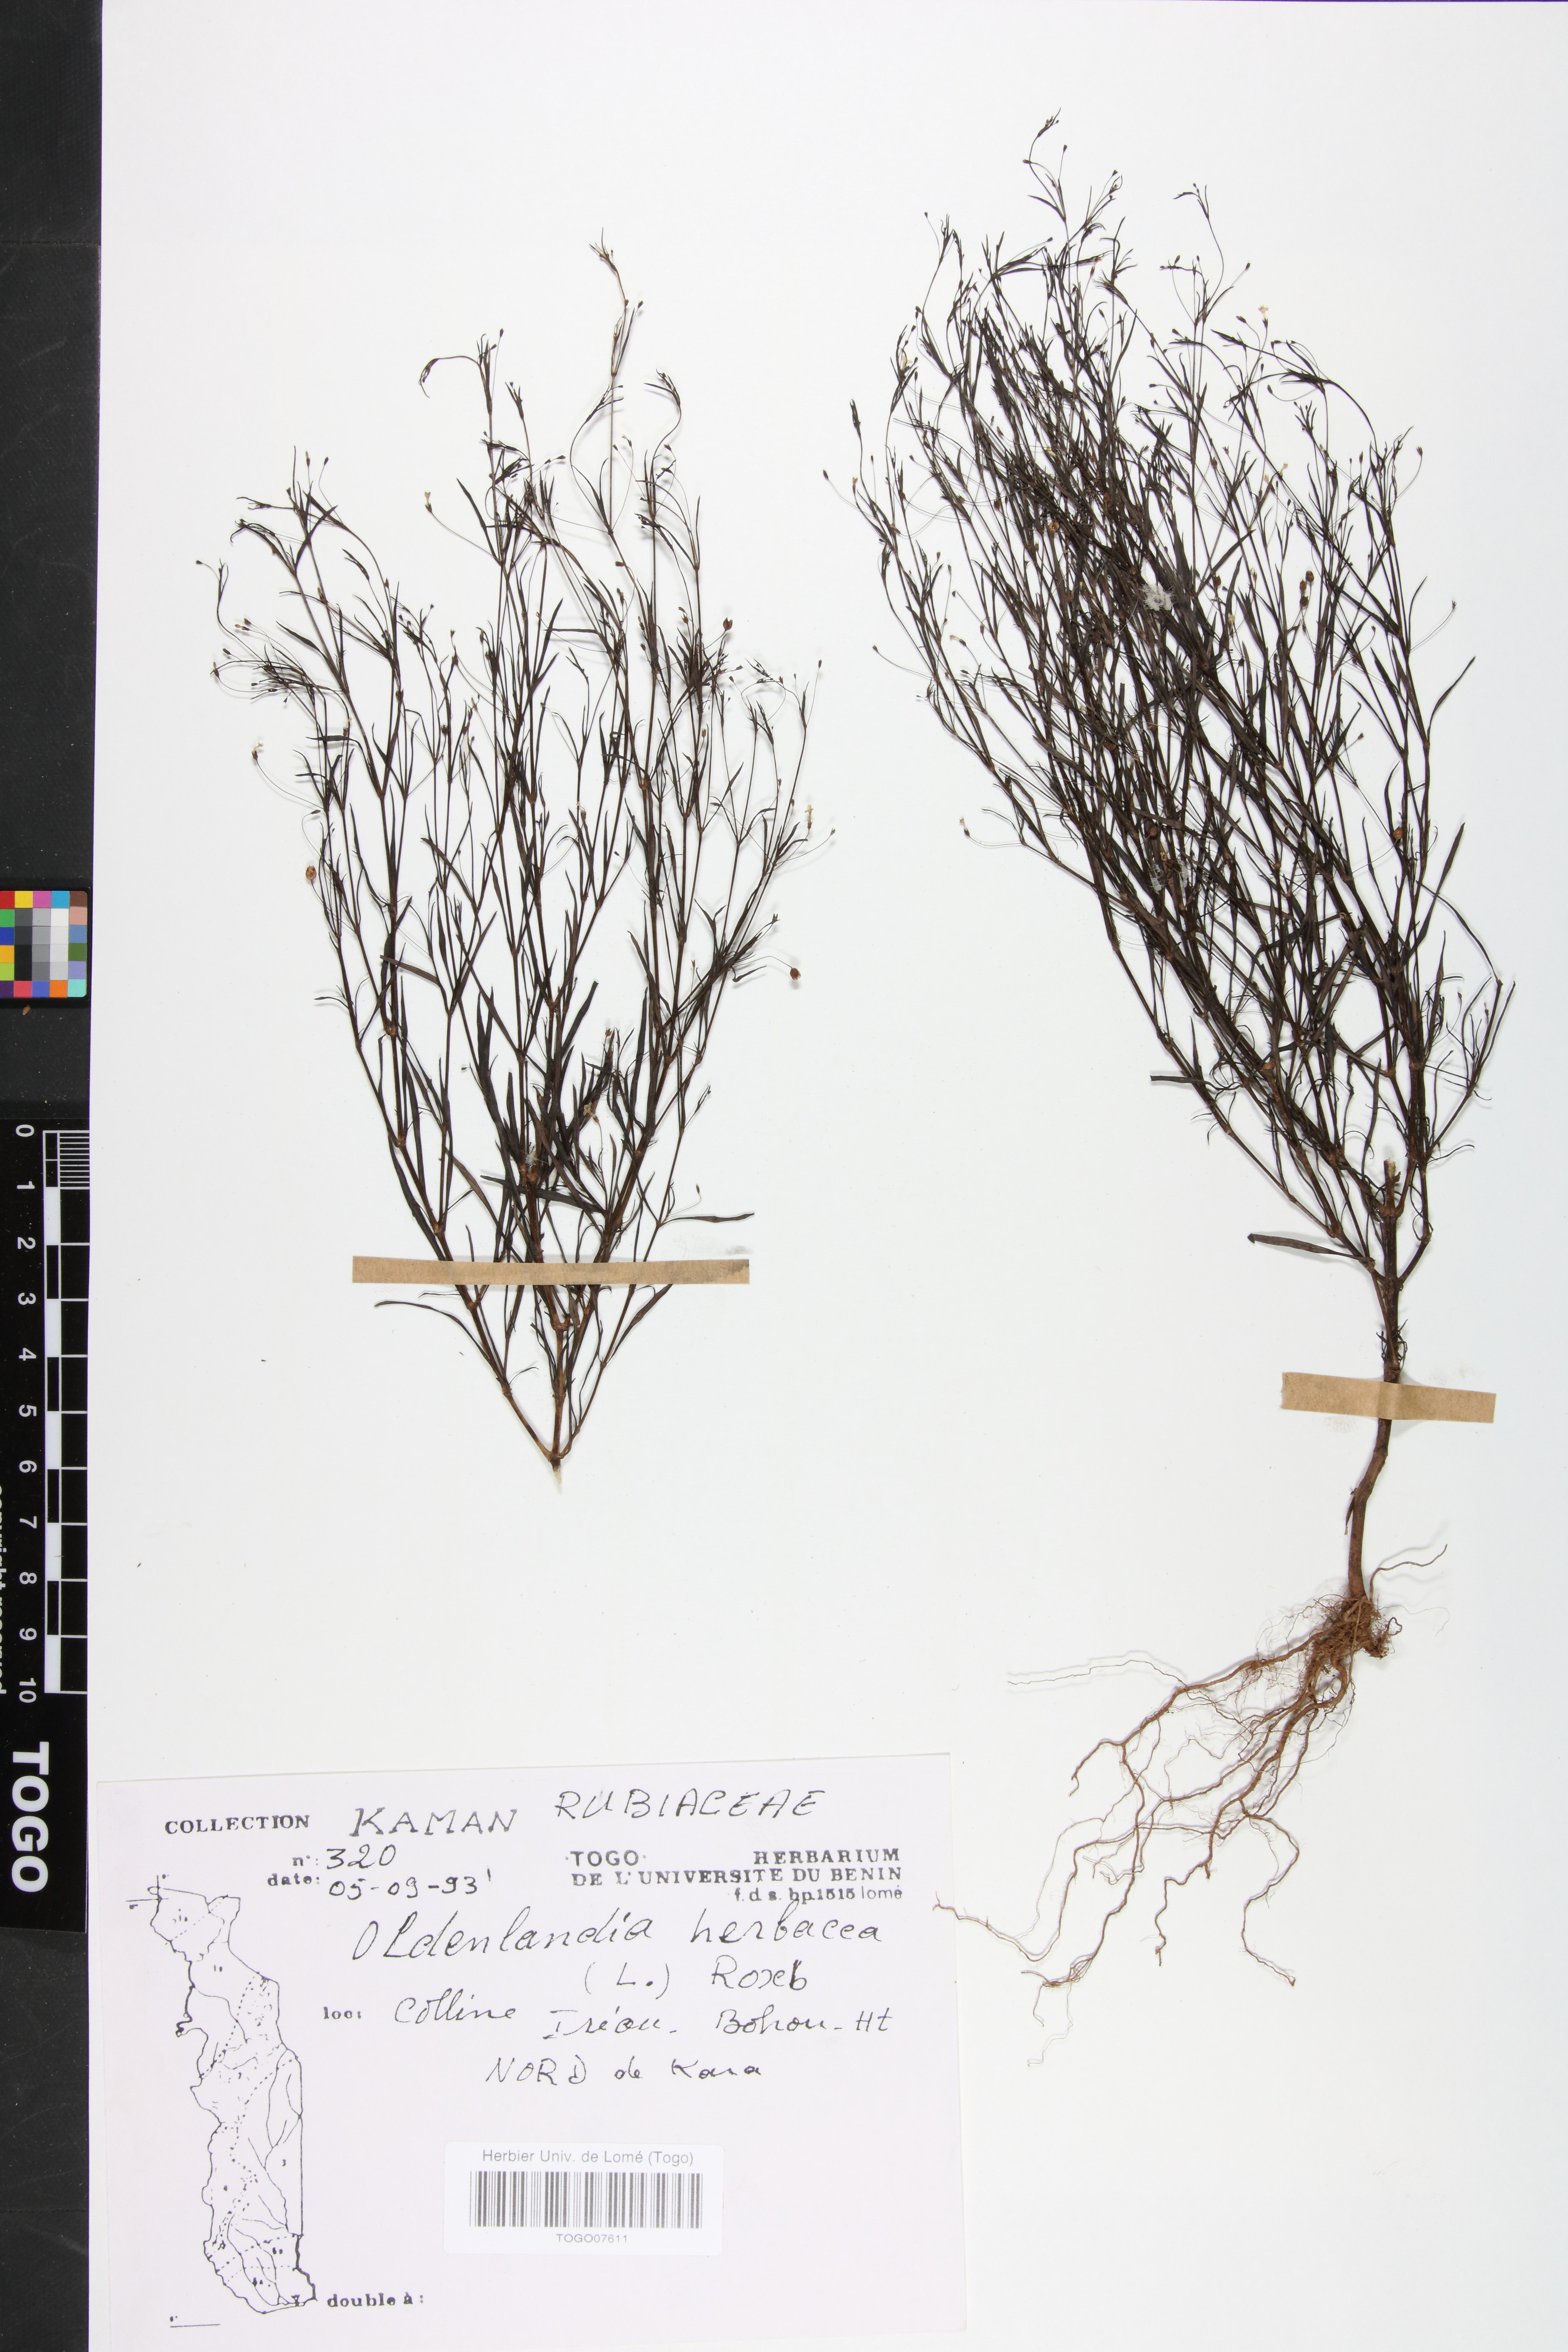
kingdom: Plantae
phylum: Tracheophyta
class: Magnoliopsida
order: Gentianales
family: Rubiaceae
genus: Oldenlandia
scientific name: Oldenlandia herbacea
